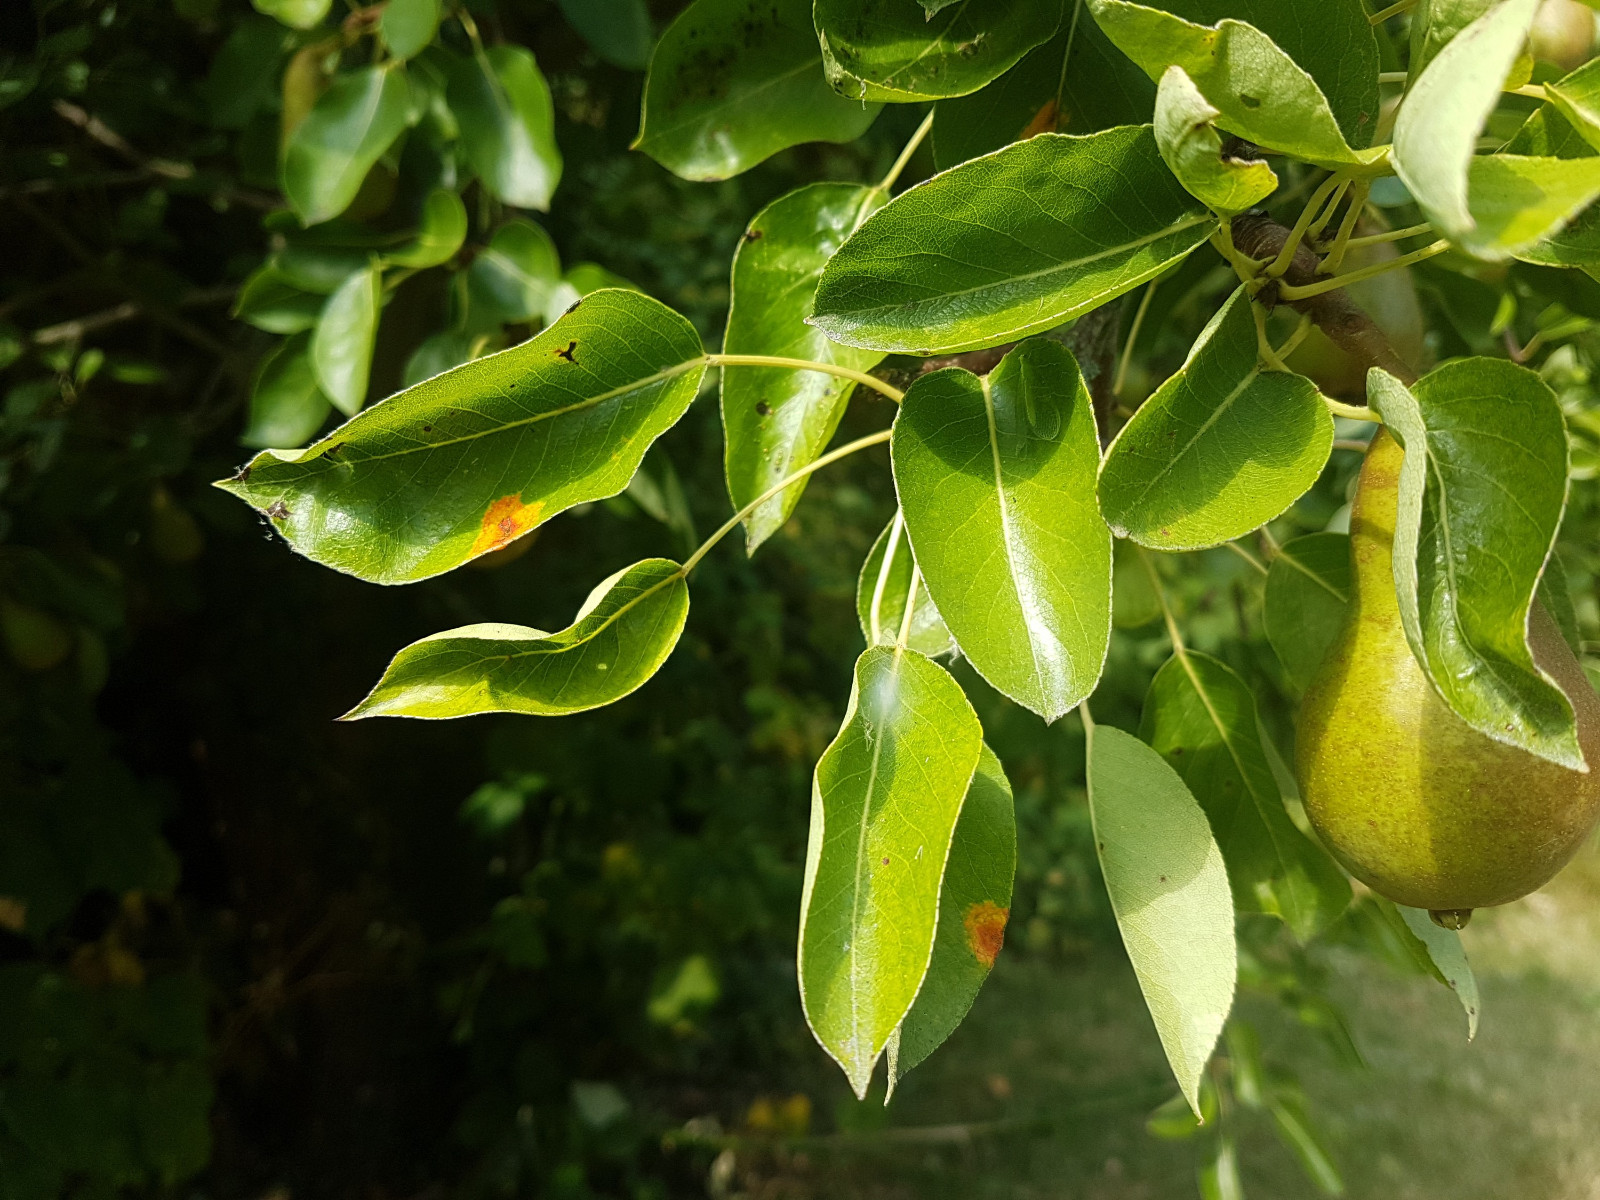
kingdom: Fungi
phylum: Basidiomycota
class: Pucciniomycetes
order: Pucciniales
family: Gymnosporangiaceae
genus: Gymnosporangium
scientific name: Gymnosporangium sabinae
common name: pæregitter-bævrerust
